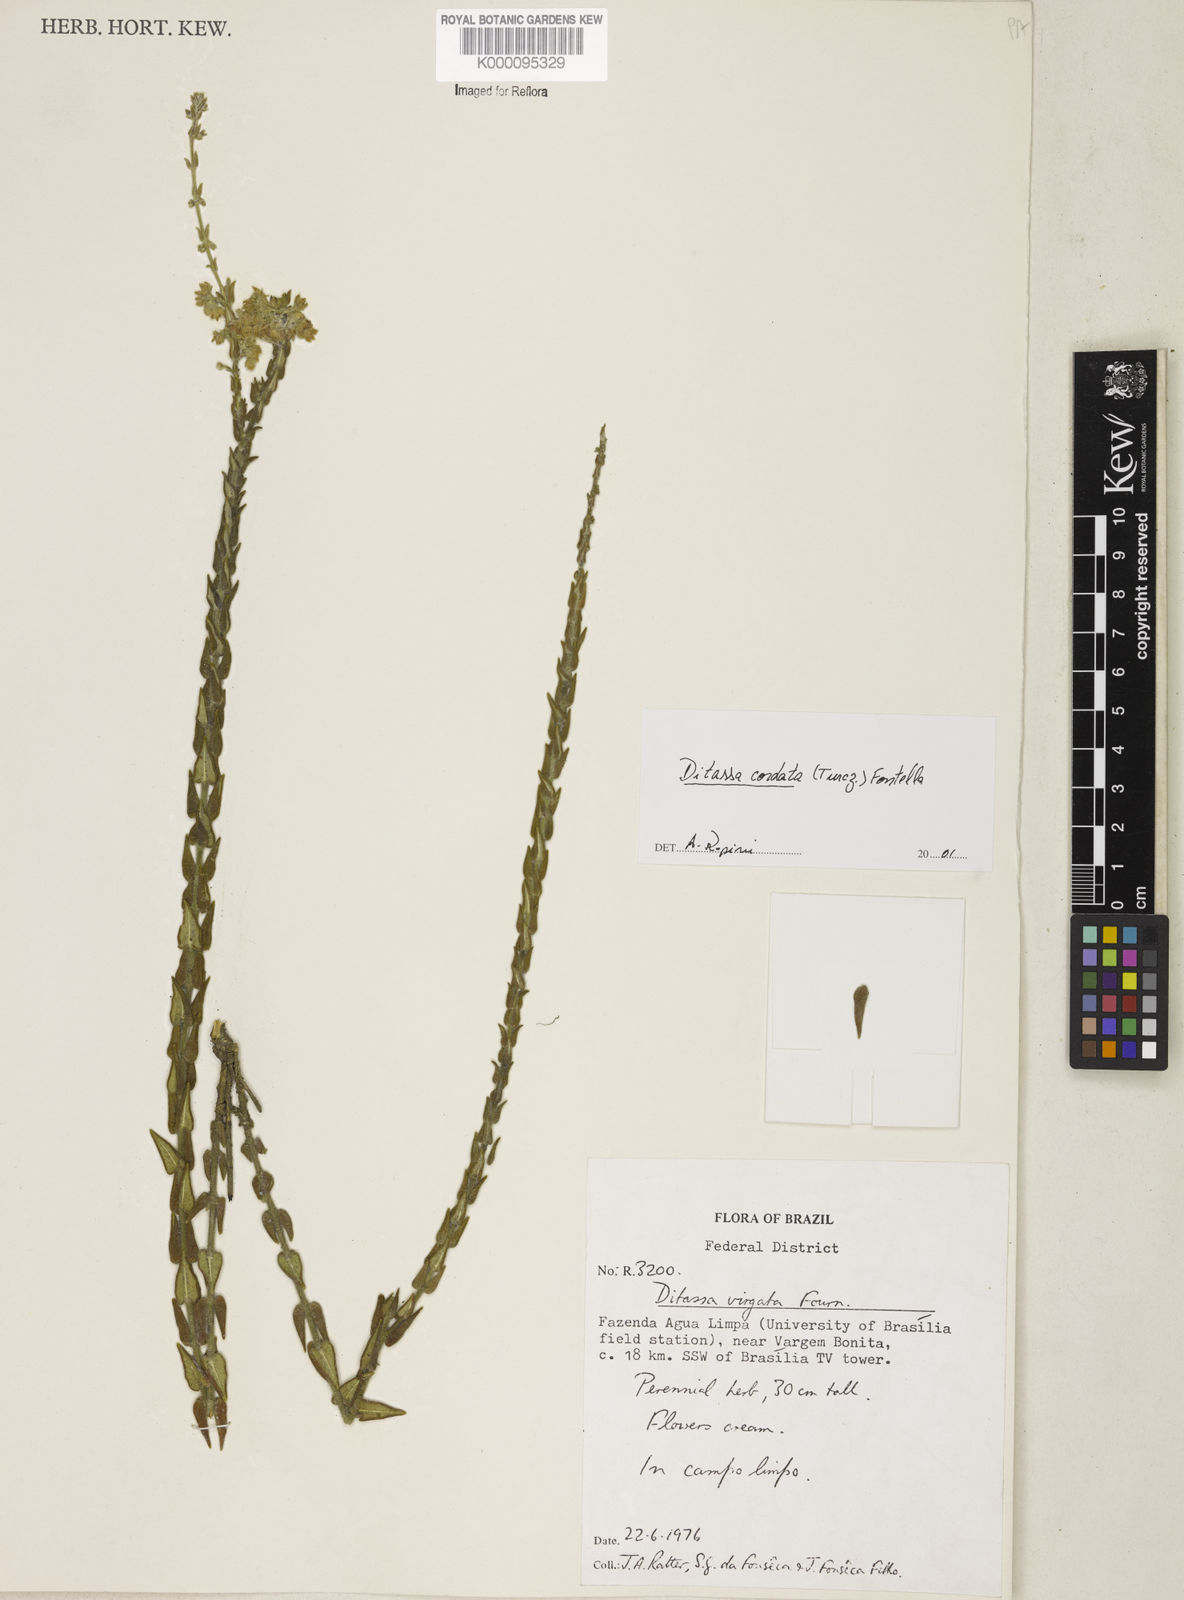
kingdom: Plantae
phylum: Tracheophyta
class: Magnoliopsida
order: Gentianales
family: Apocynaceae
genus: Minaria
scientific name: Minaria cordata
